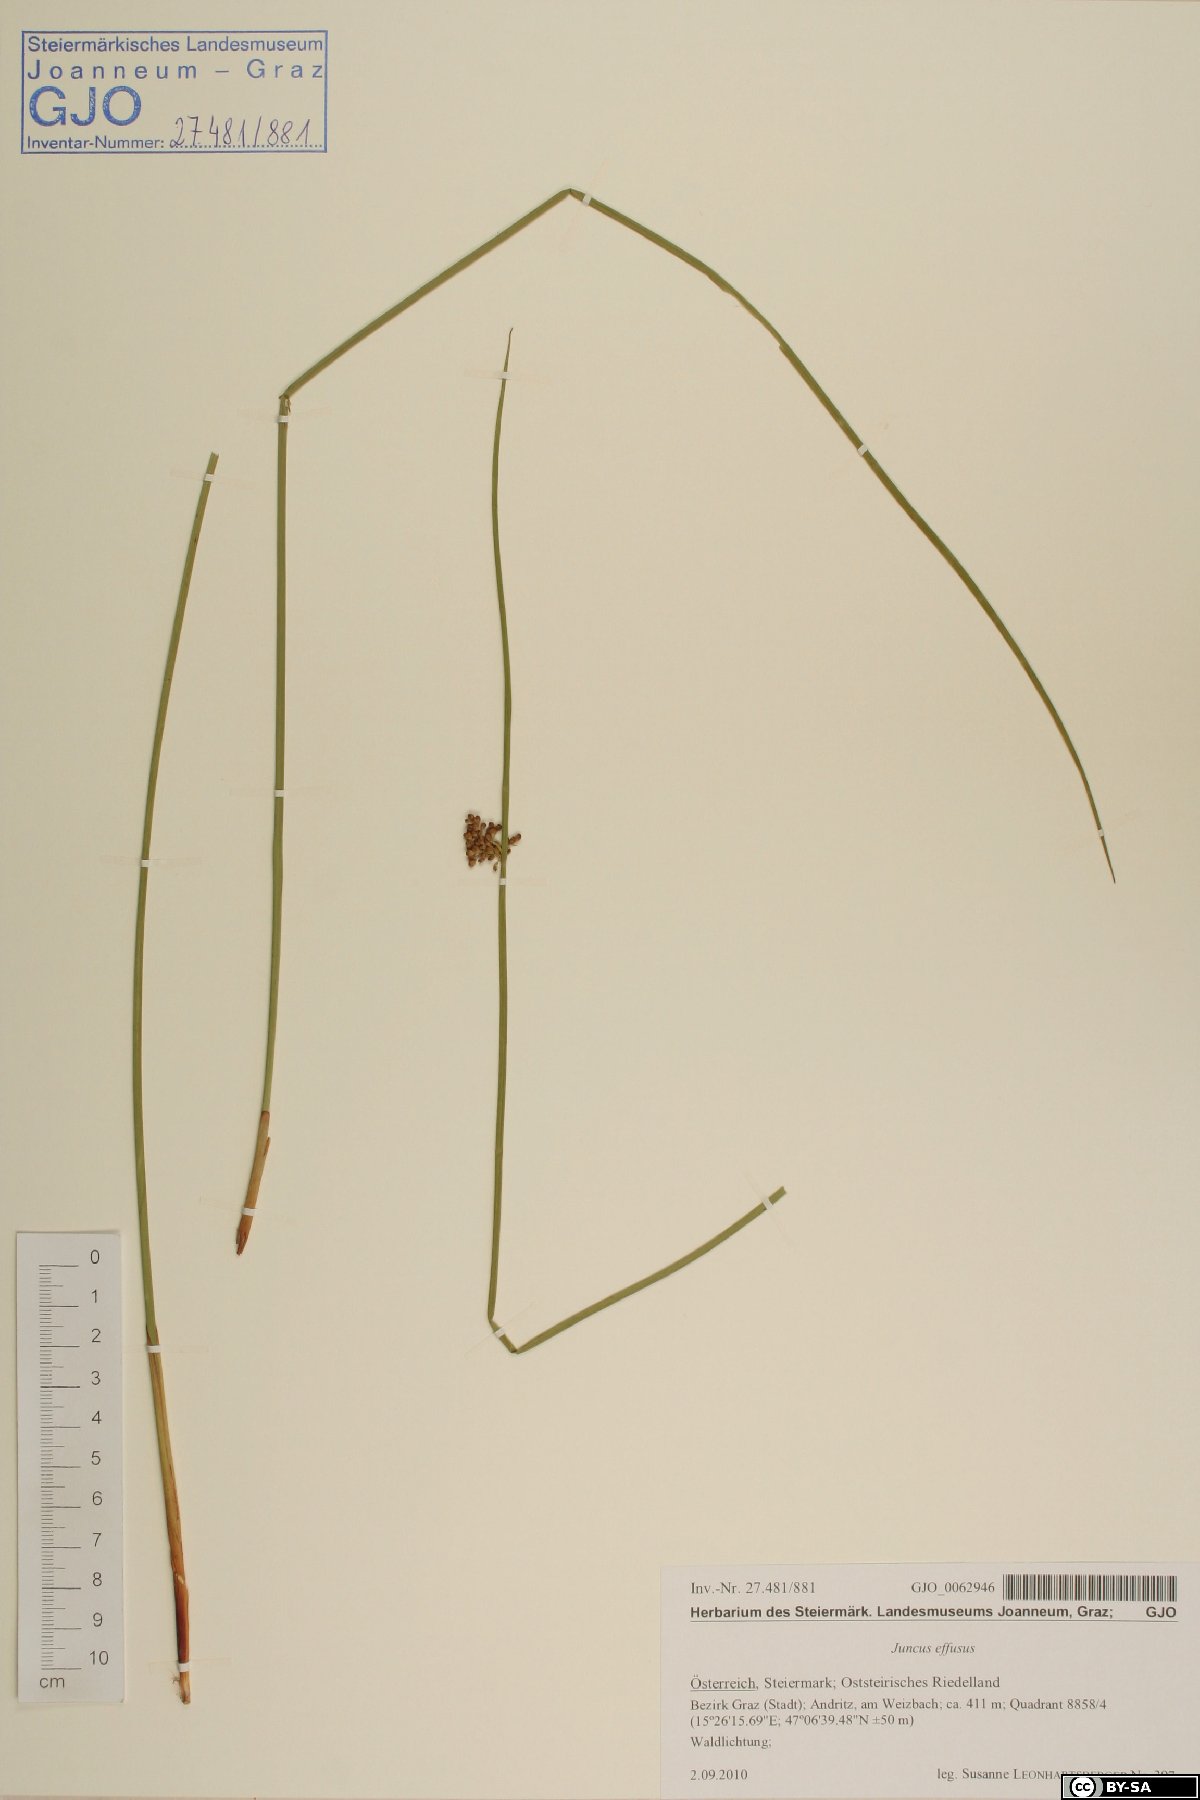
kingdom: Plantae
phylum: Tracheophyta
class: Liliopsida
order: Poales
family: Juncaceae
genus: Juncus
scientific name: Juncus effusus
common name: Soft rush
